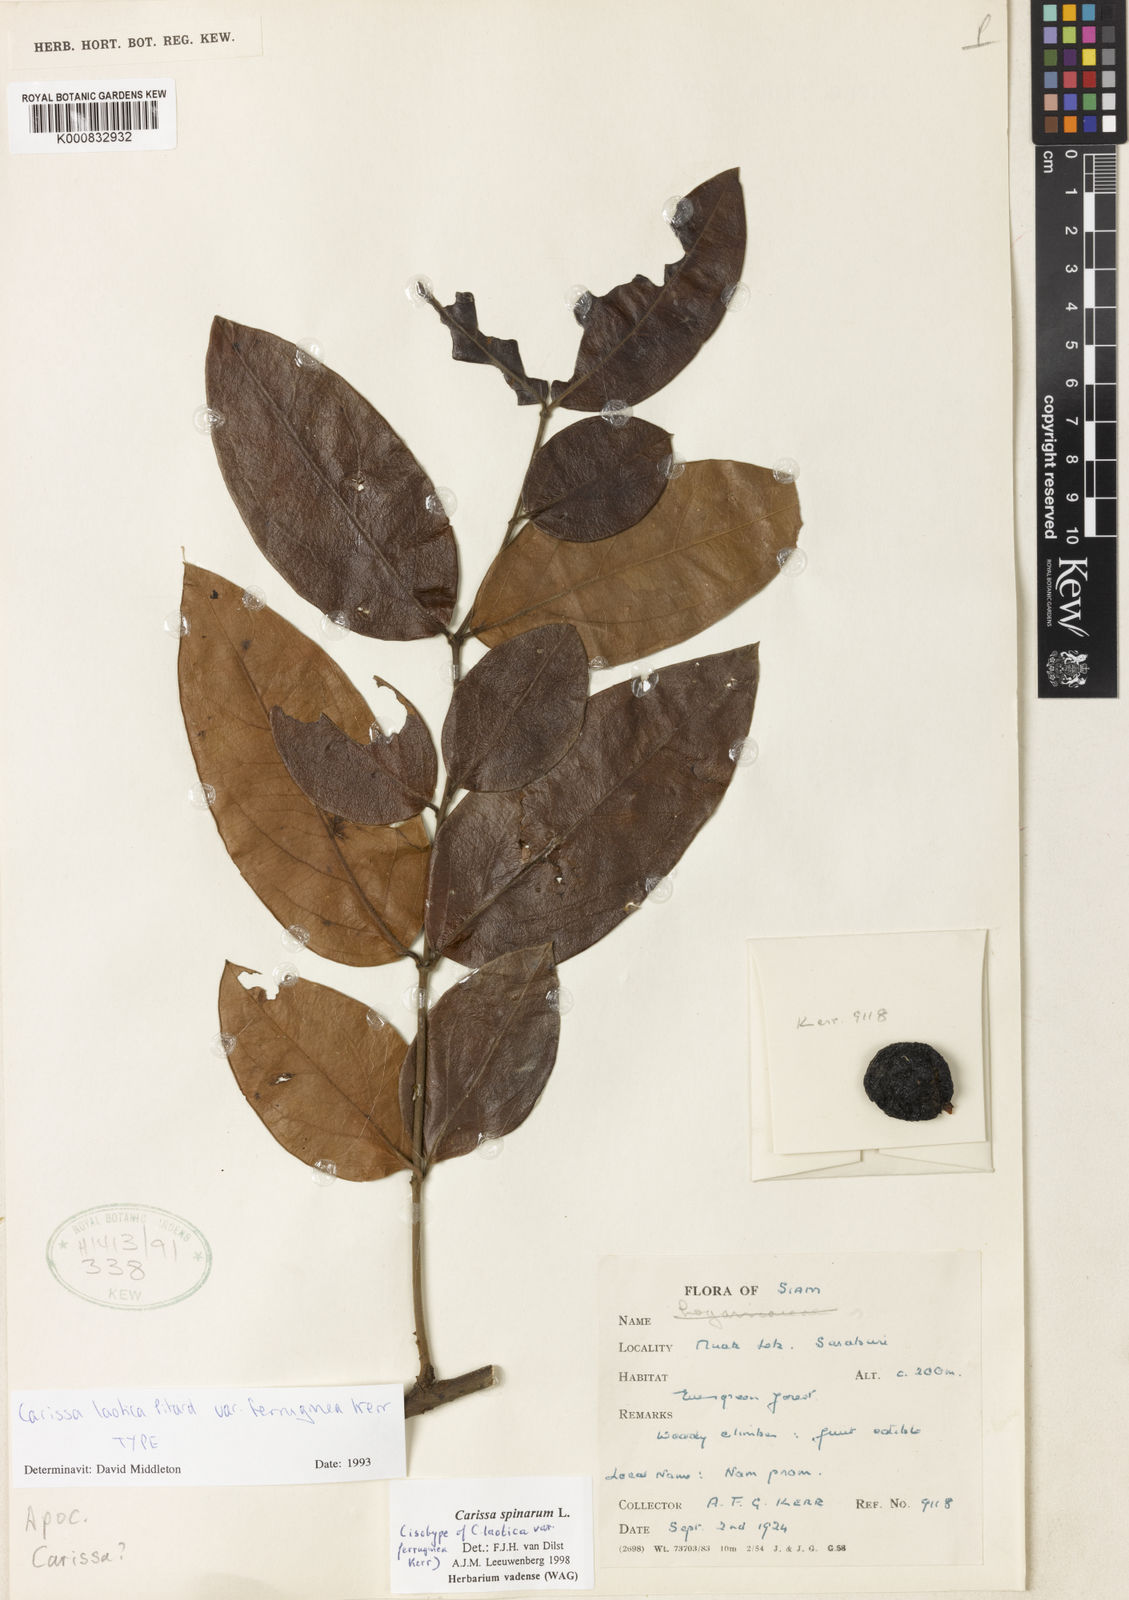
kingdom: Plantae
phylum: Tracheophyta
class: Magnoliopsida
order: Gentianales
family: Apocynaceae
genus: Carissa
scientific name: Carissa spinarum
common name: Egyptian carissa
